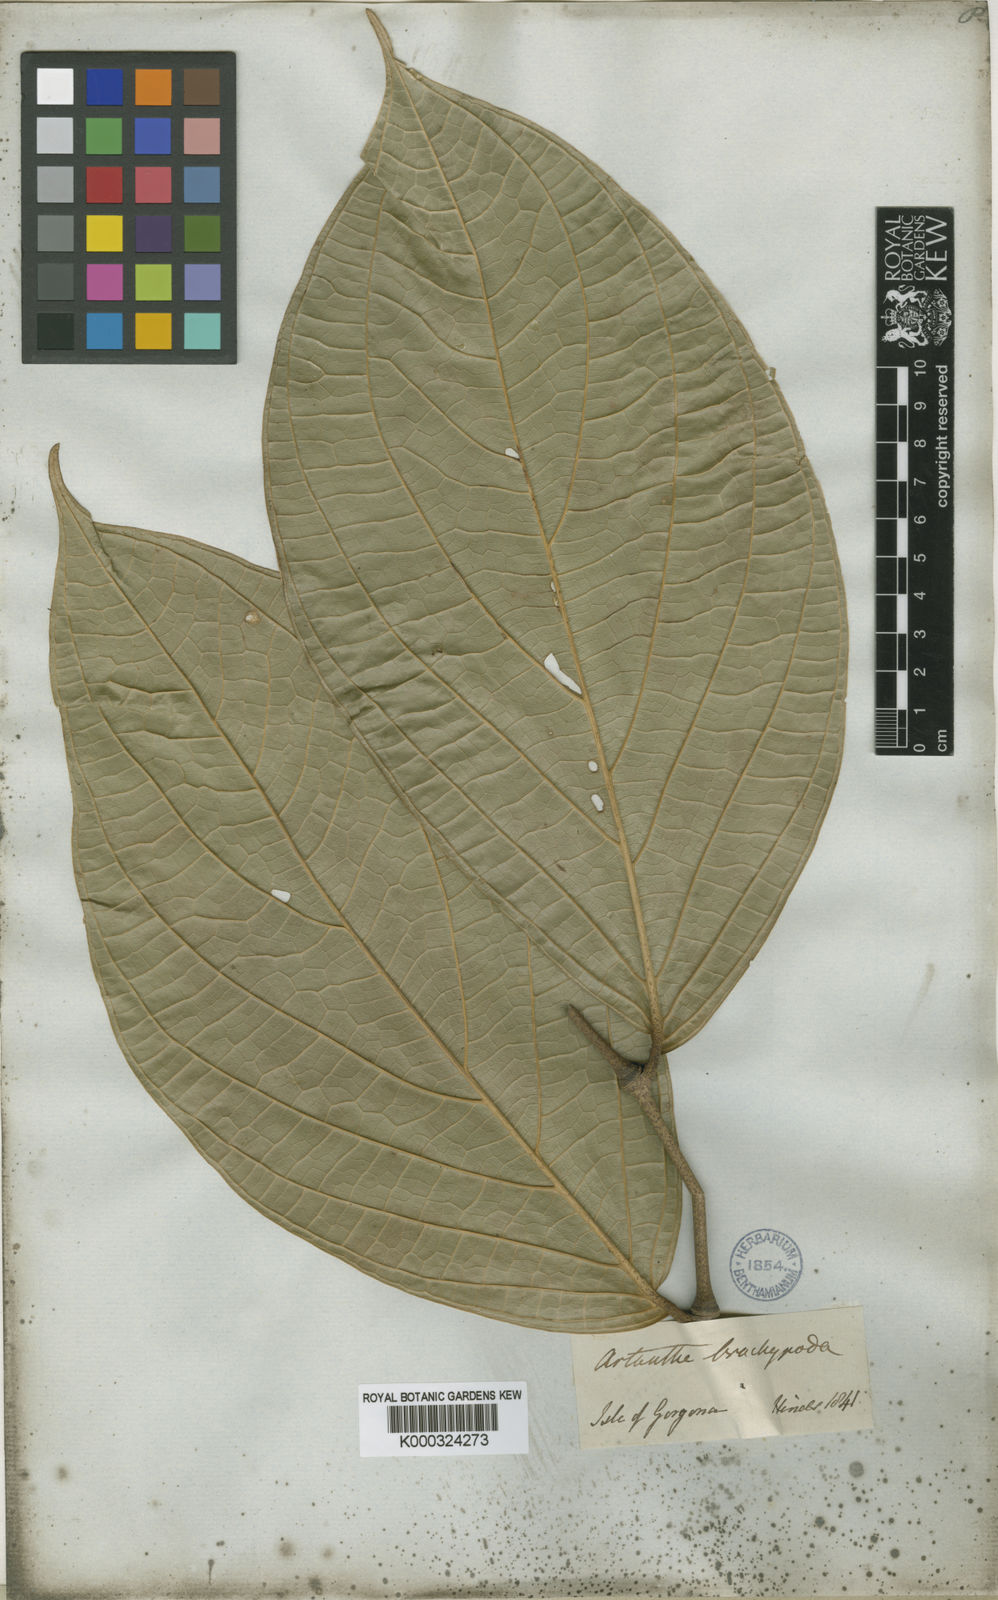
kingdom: Plantae
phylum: Tracheophyta
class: Magnoliopsida
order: Piperales
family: Piperaceae
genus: Piper
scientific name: Piper brachypodon
